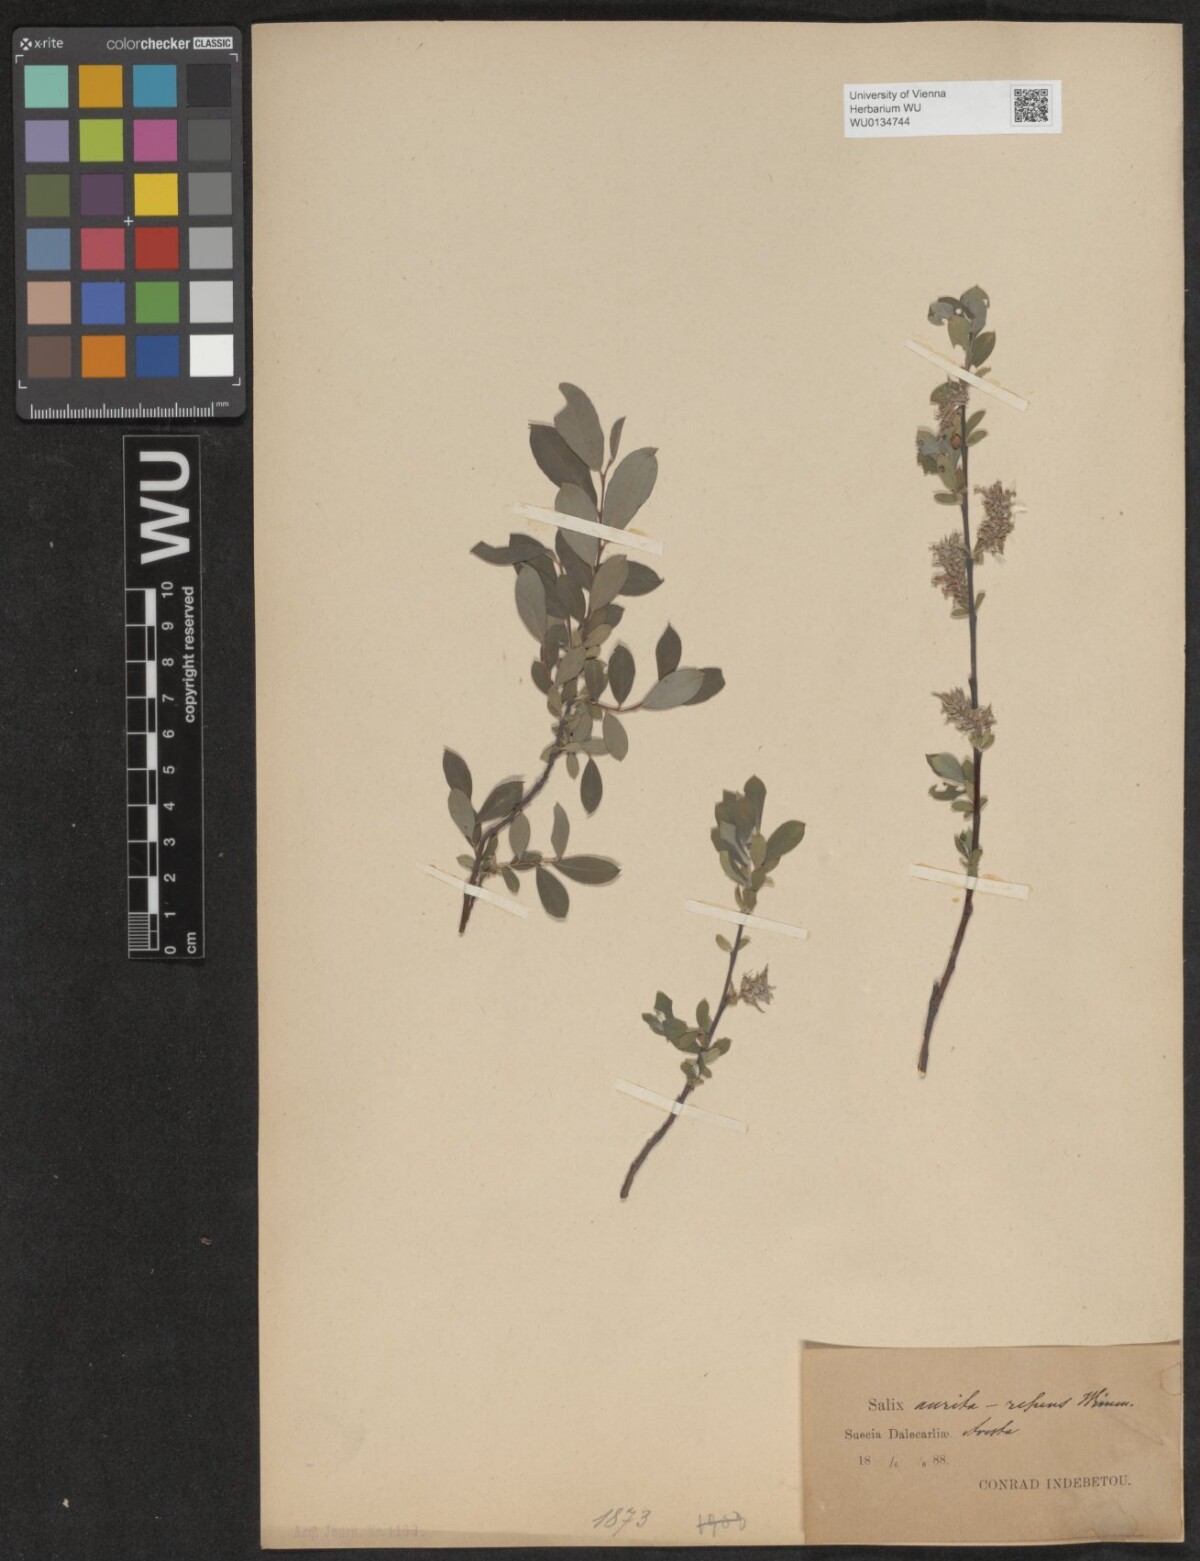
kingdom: Plantae
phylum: Tracheophyta
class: Magnoliopsida
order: Malpighiales
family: Salicaceae
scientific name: Salicaceae
